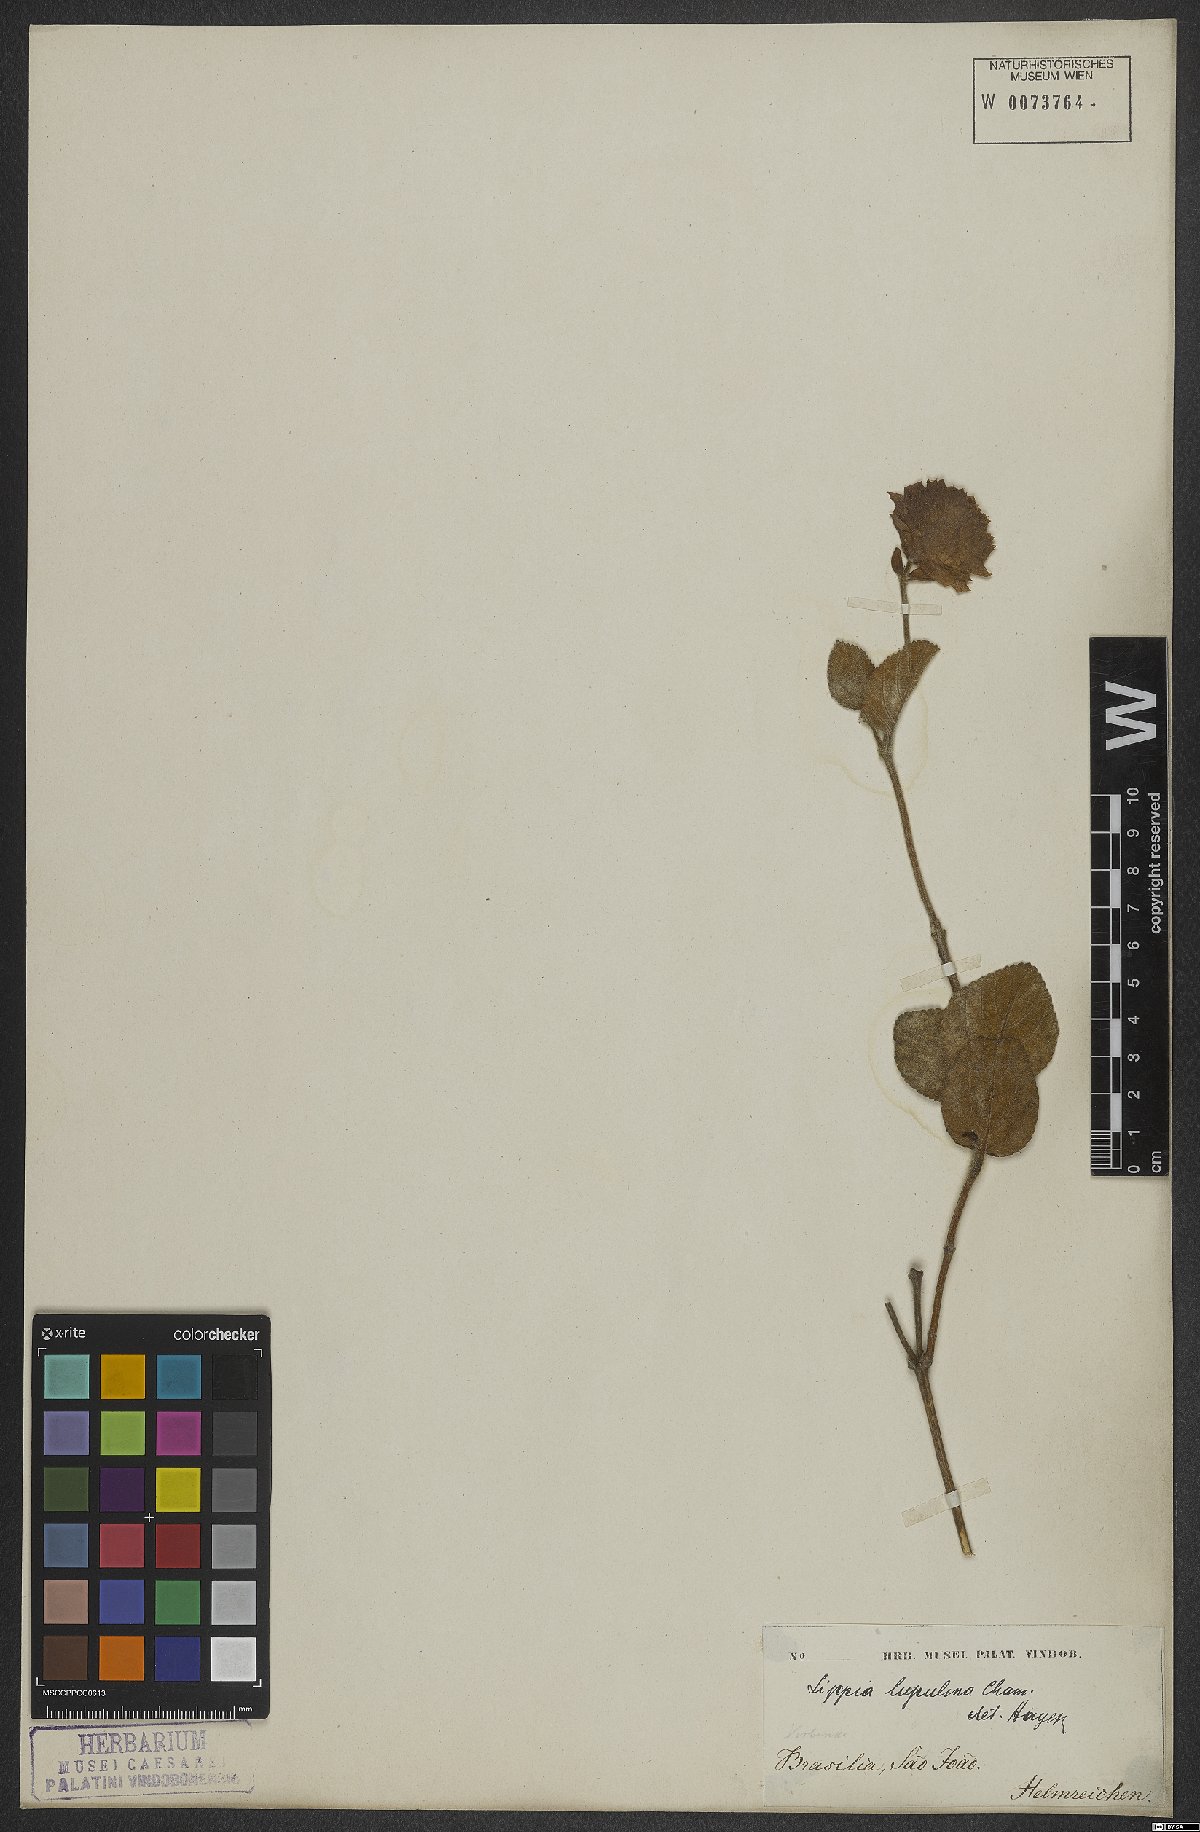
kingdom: Plantae
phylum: Tracheophyta
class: Magnoliopsida
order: Lamiales
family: Verbenaceae
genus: Lippia
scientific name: Lippia lupulina
